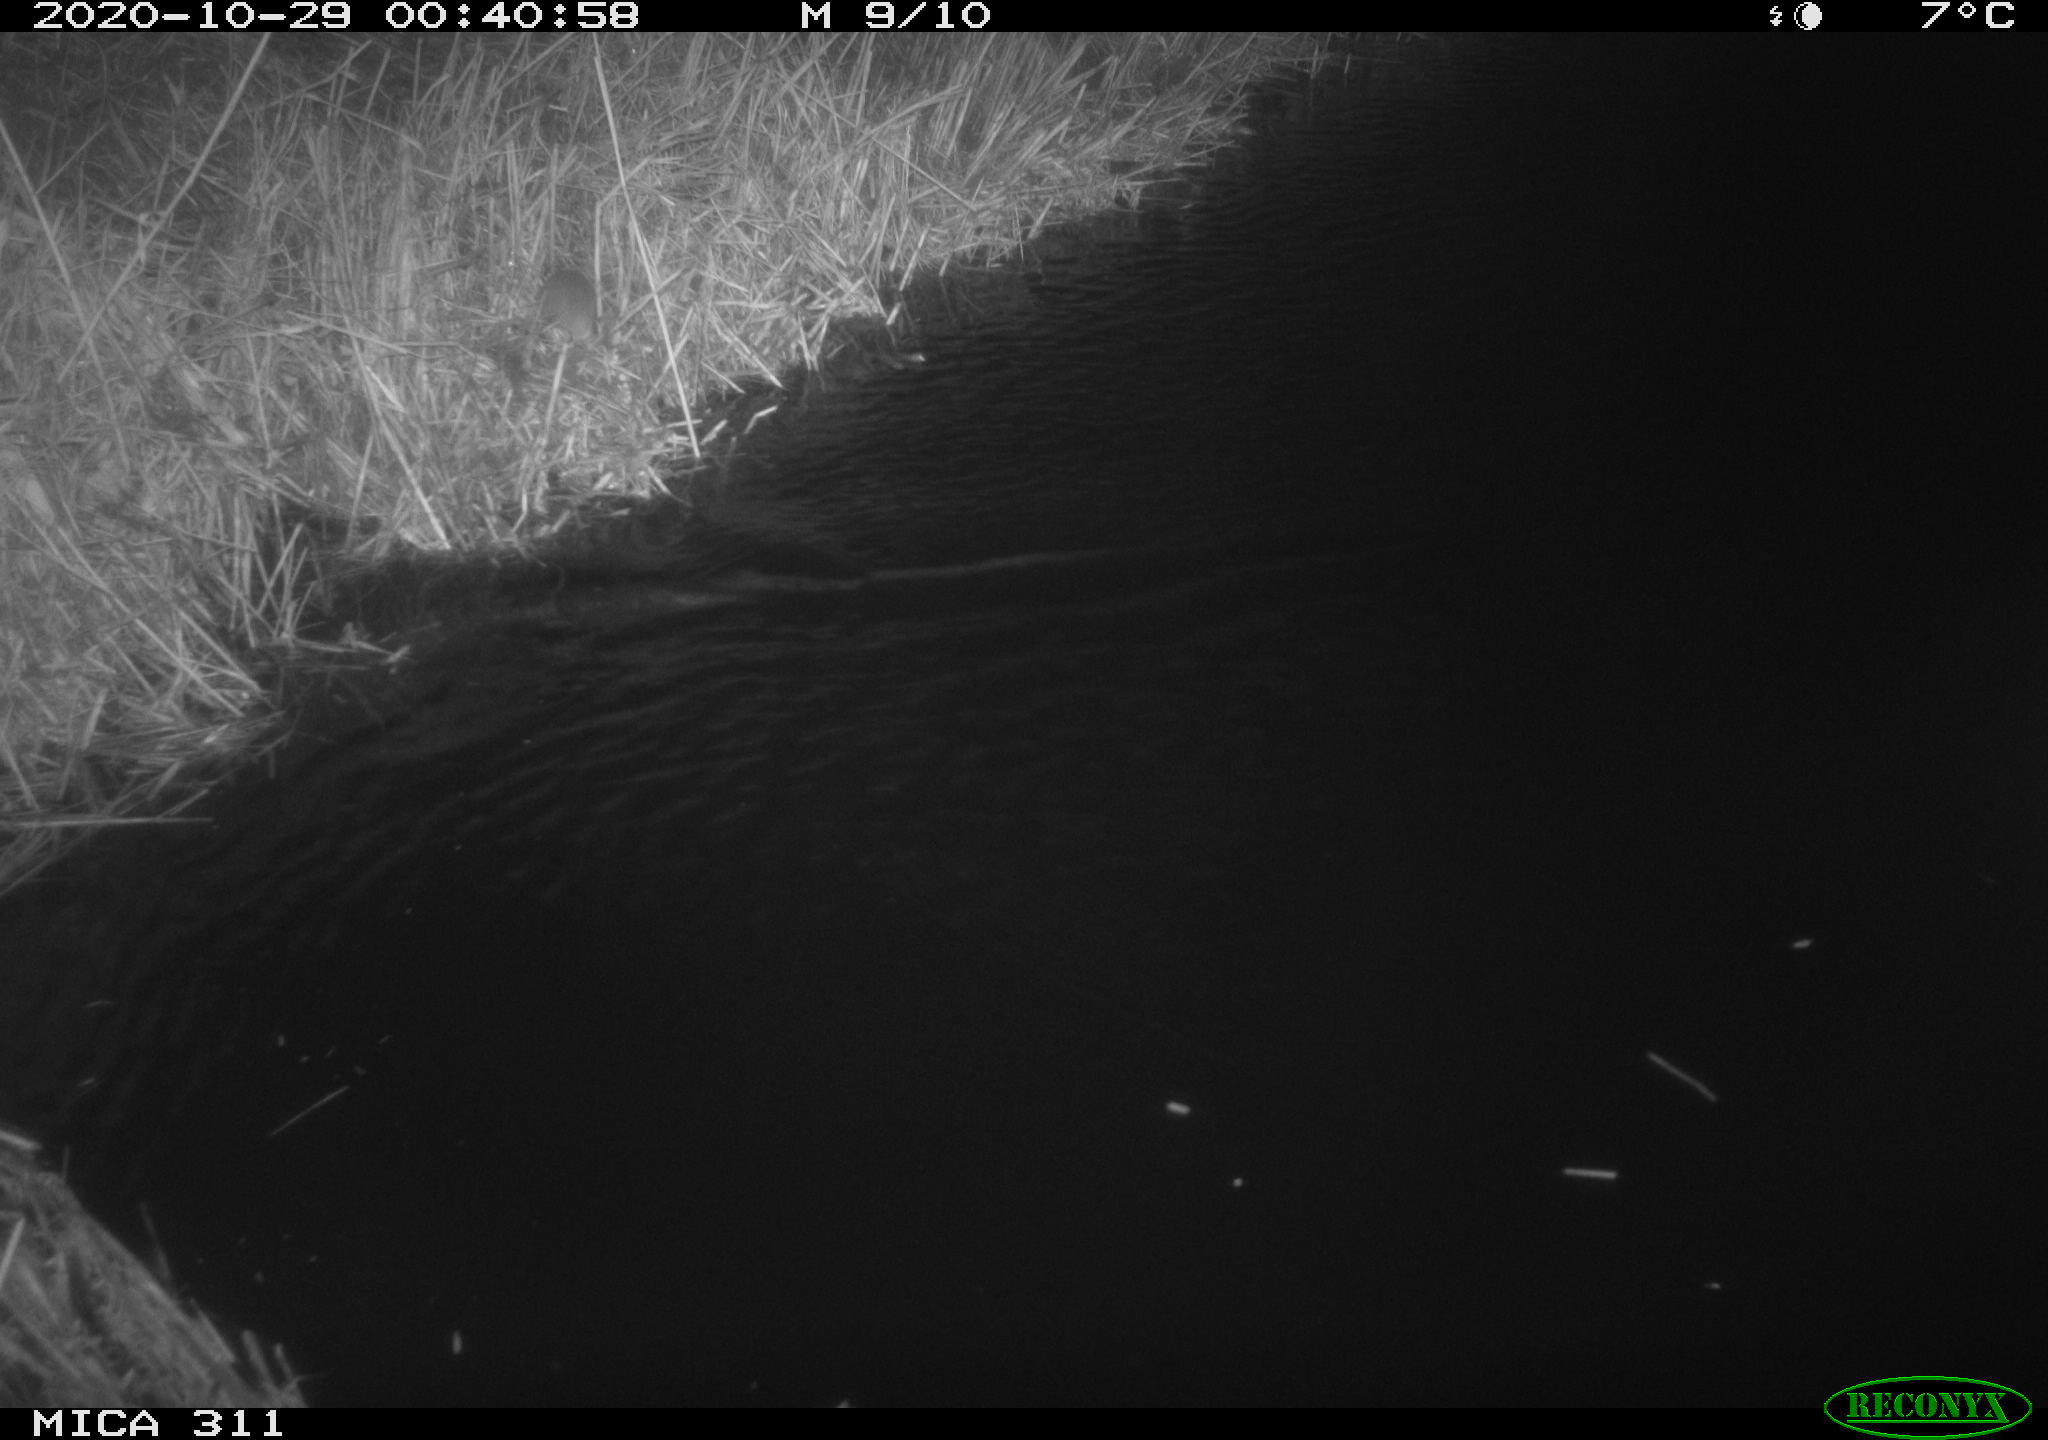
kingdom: Animalia
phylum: Chordata
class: Mammalia
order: Rodentia
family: Muridae
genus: Rattus
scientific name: Rattus norvegicus
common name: Brown rat
